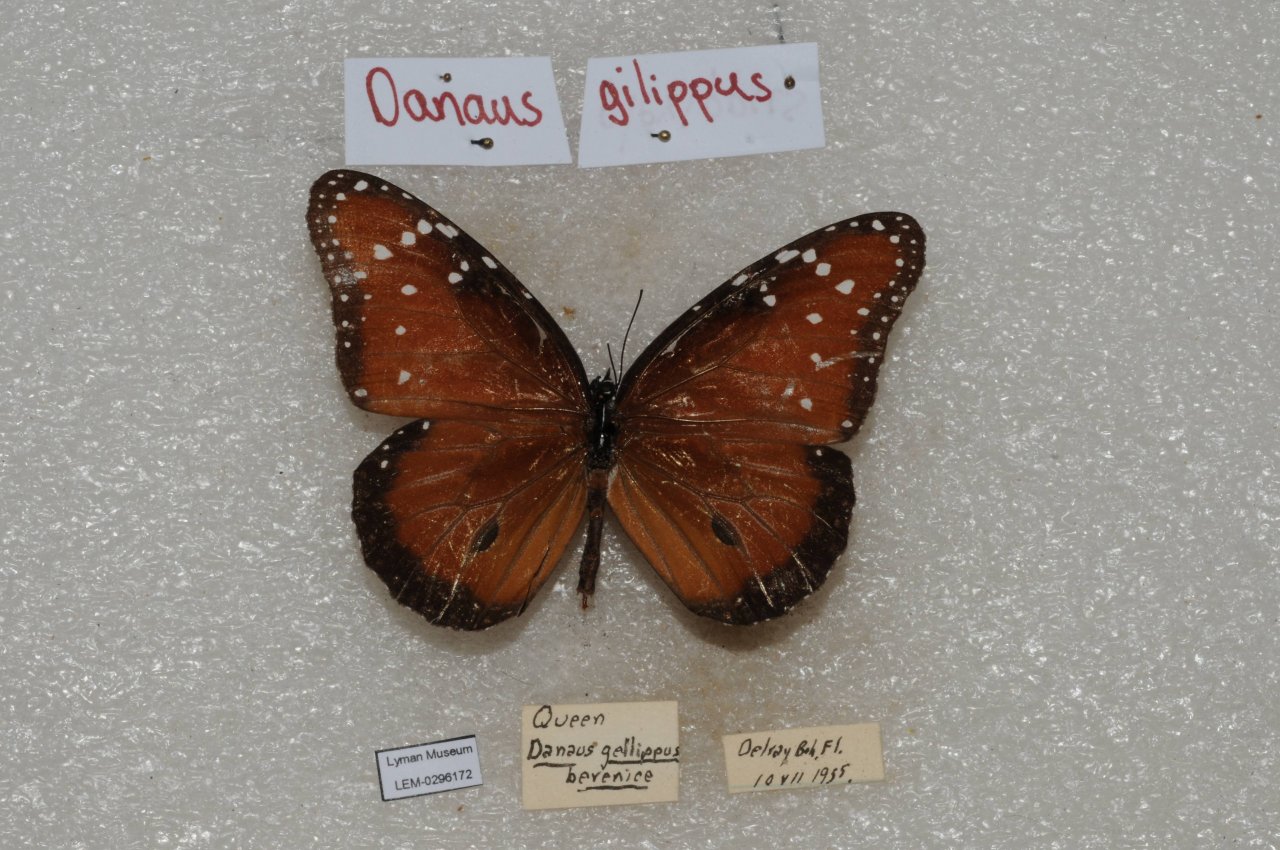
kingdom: Animalia
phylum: Arthropoda
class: Insecta
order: Lepidoptera
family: Nymphalidae
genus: Danaus
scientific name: Danaus gilippus
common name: Queen
